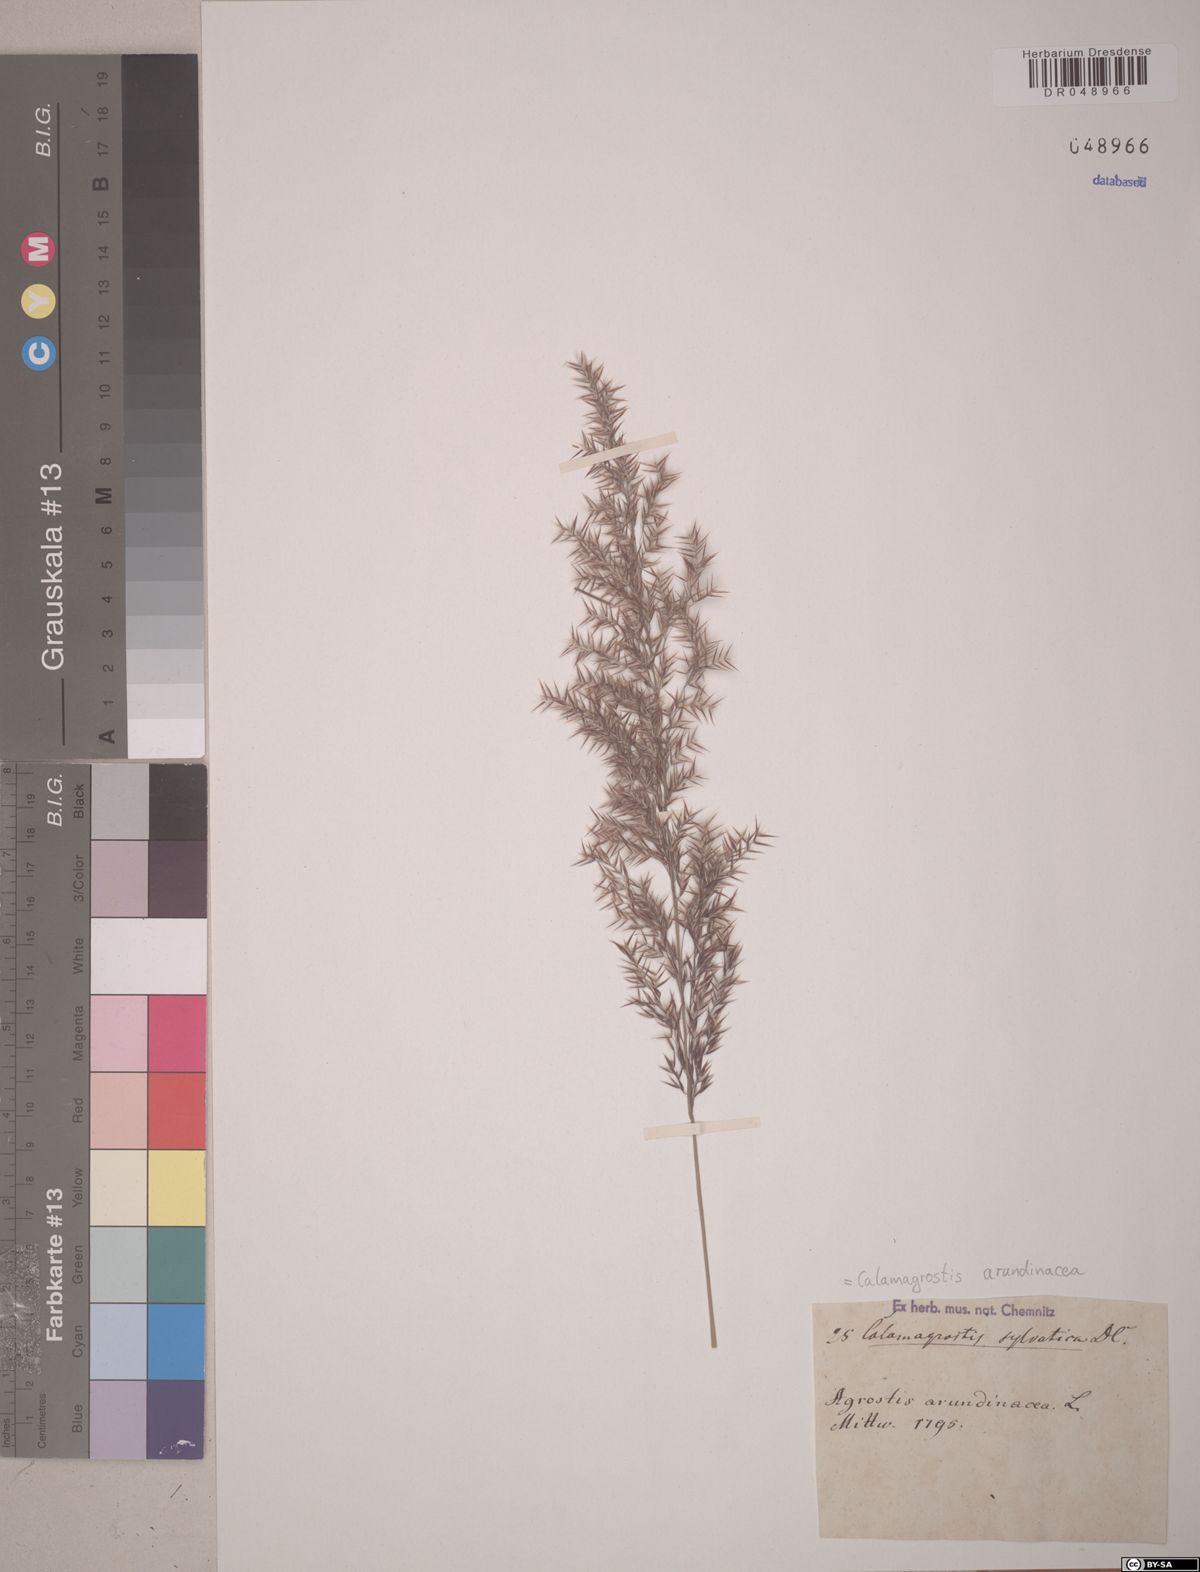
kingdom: Plantae
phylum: Tracheophyta
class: Liliopsida
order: Poales
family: Poaceae
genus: Calamagrostis
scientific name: Calamagrostis arundinacea
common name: Metskastik
